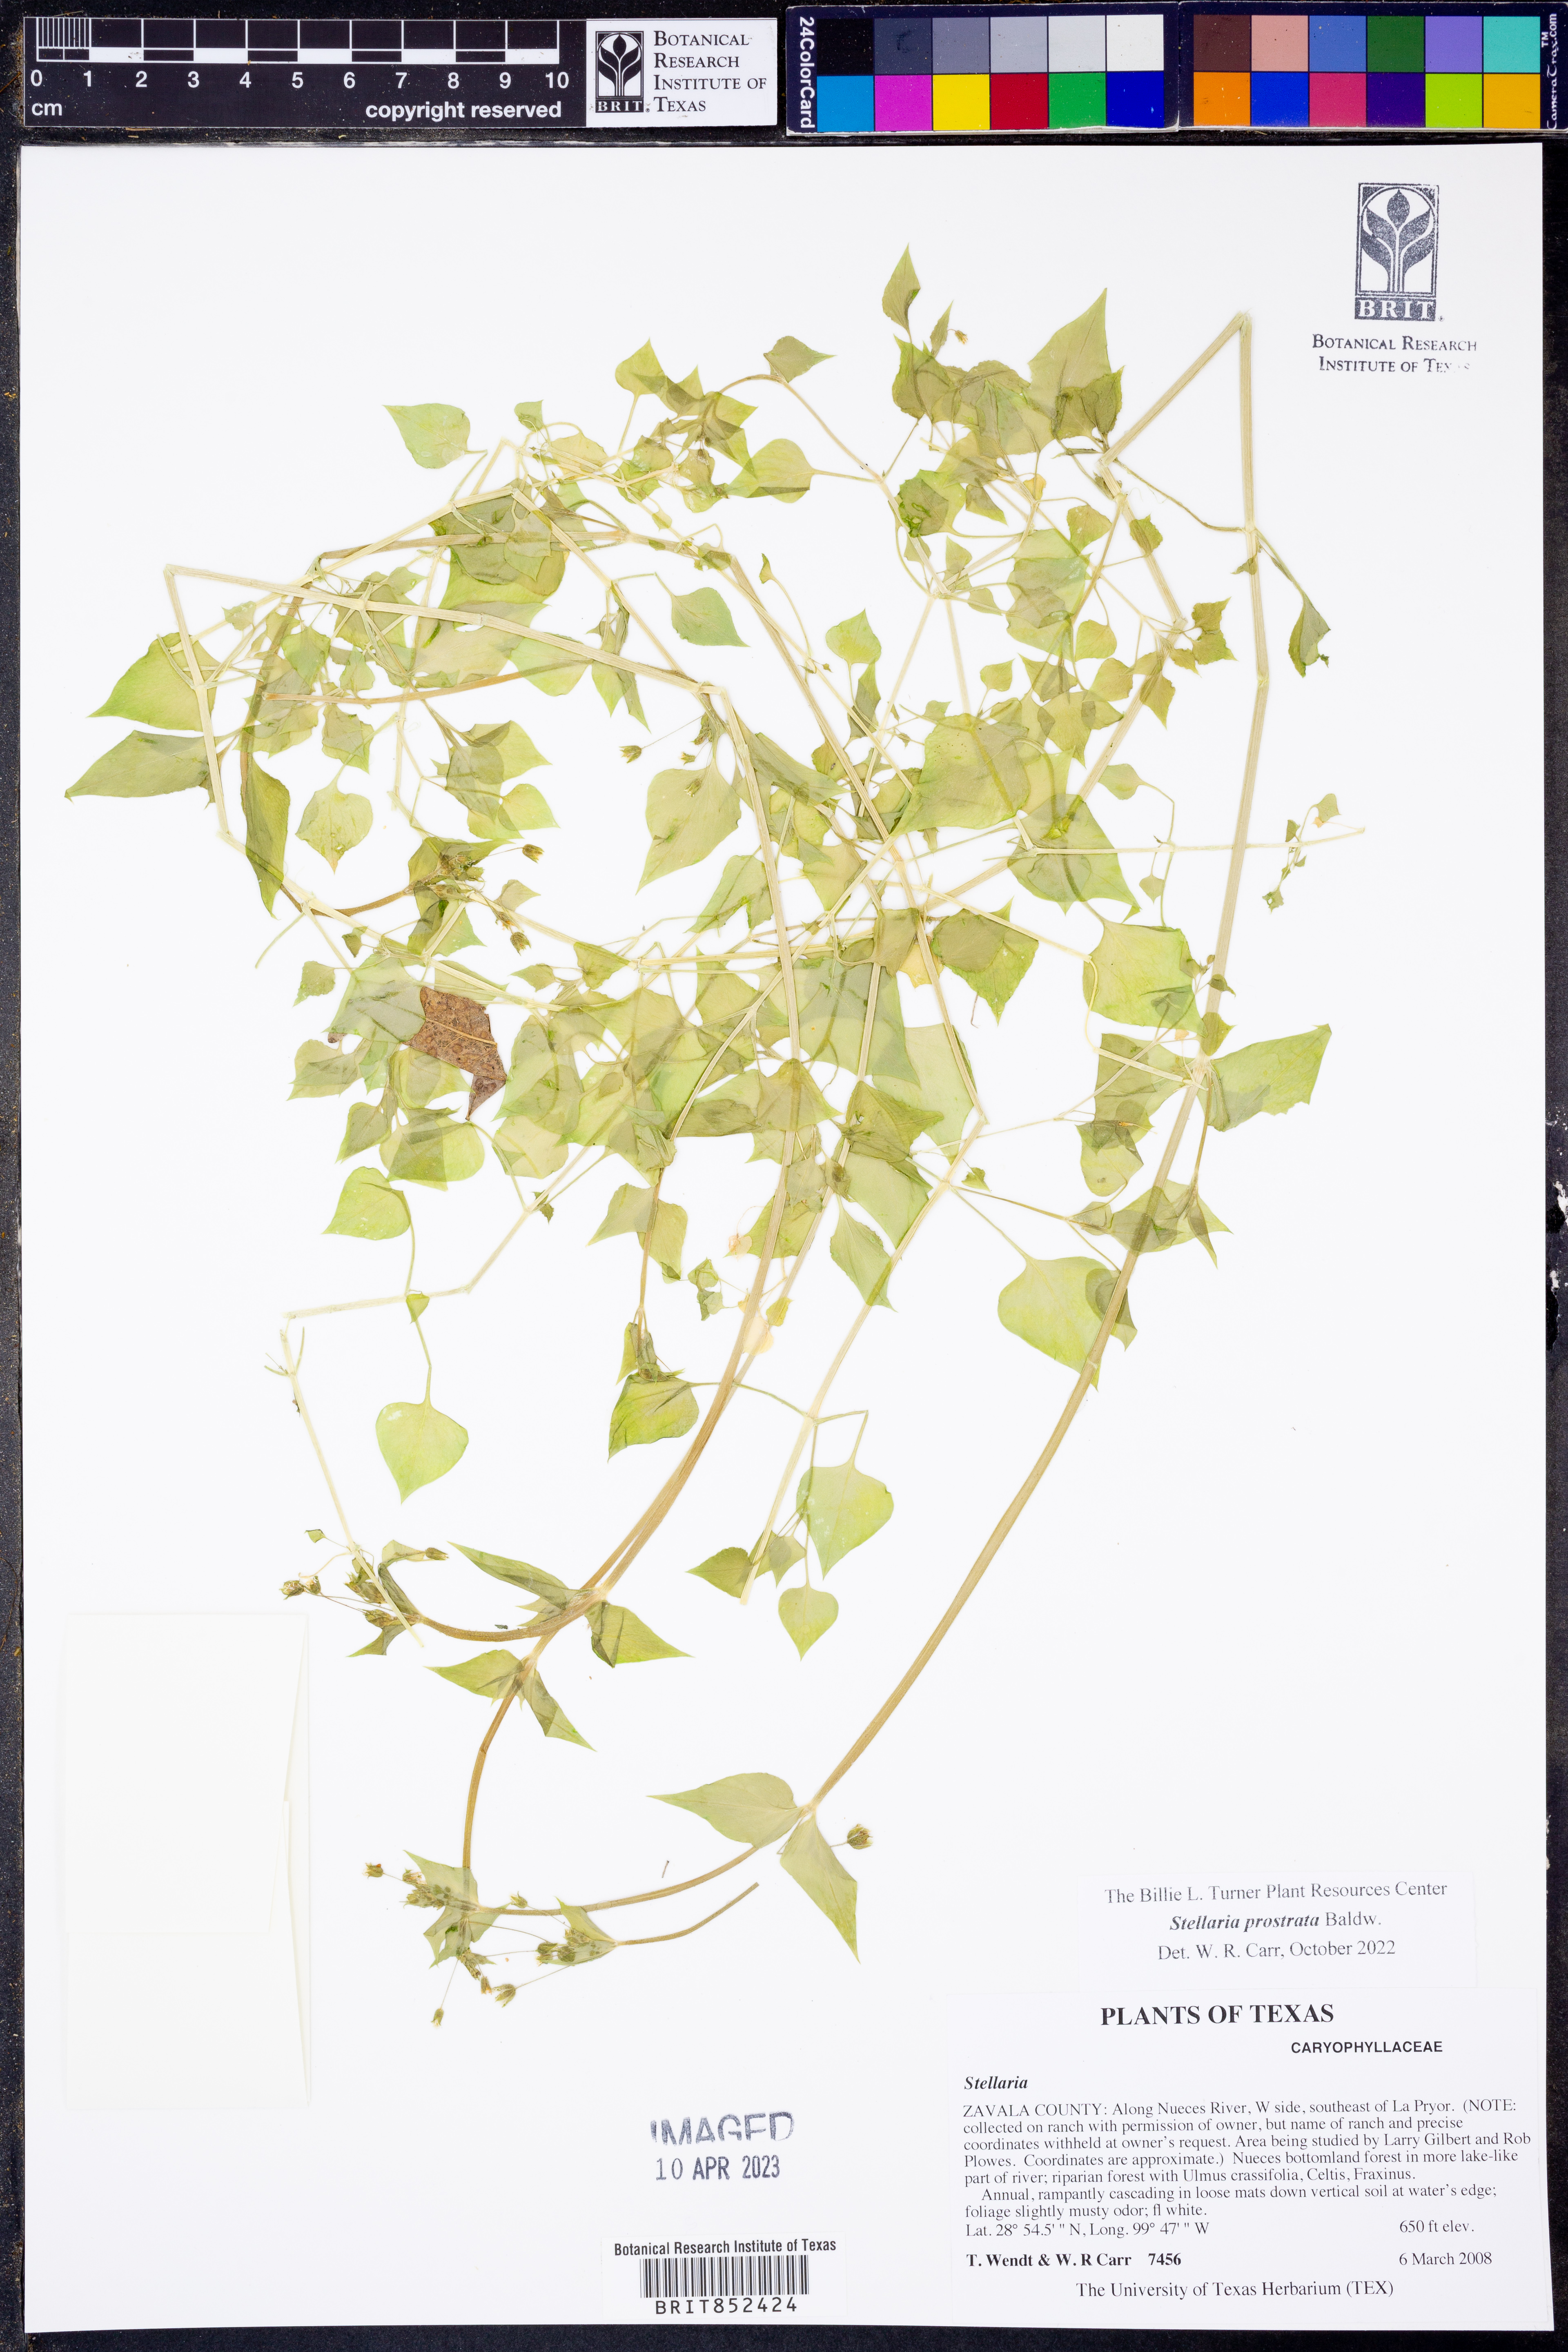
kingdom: Plantae
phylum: Tracheophyta
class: Magnoliopsida
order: Caryophyllales
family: Caryophyllaceae
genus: Stellaria
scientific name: Stellaria cuspidata
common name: Mexican chickweed
